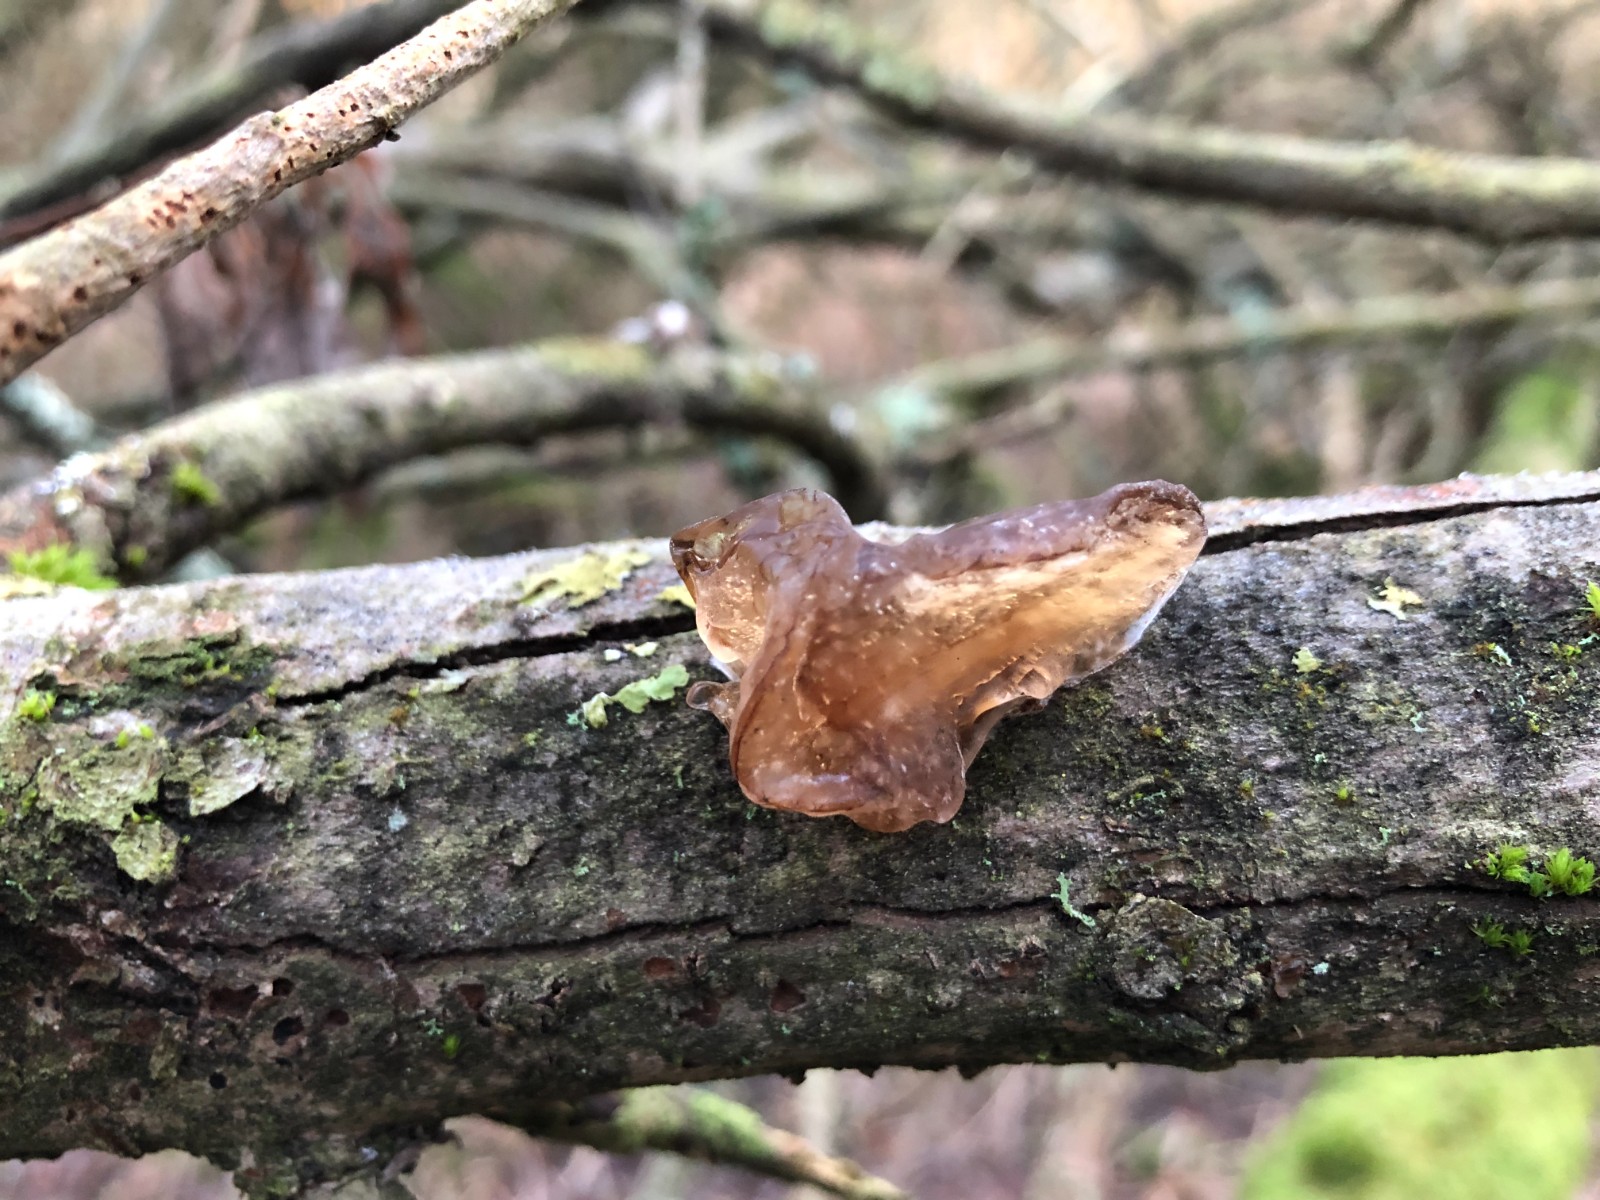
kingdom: Fungi
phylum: Basidiomycota
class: Agaricomycetes
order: Auriculariales
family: Auriculariaceae
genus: Exidia
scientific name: Exidia recisa
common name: pile-bævretop
